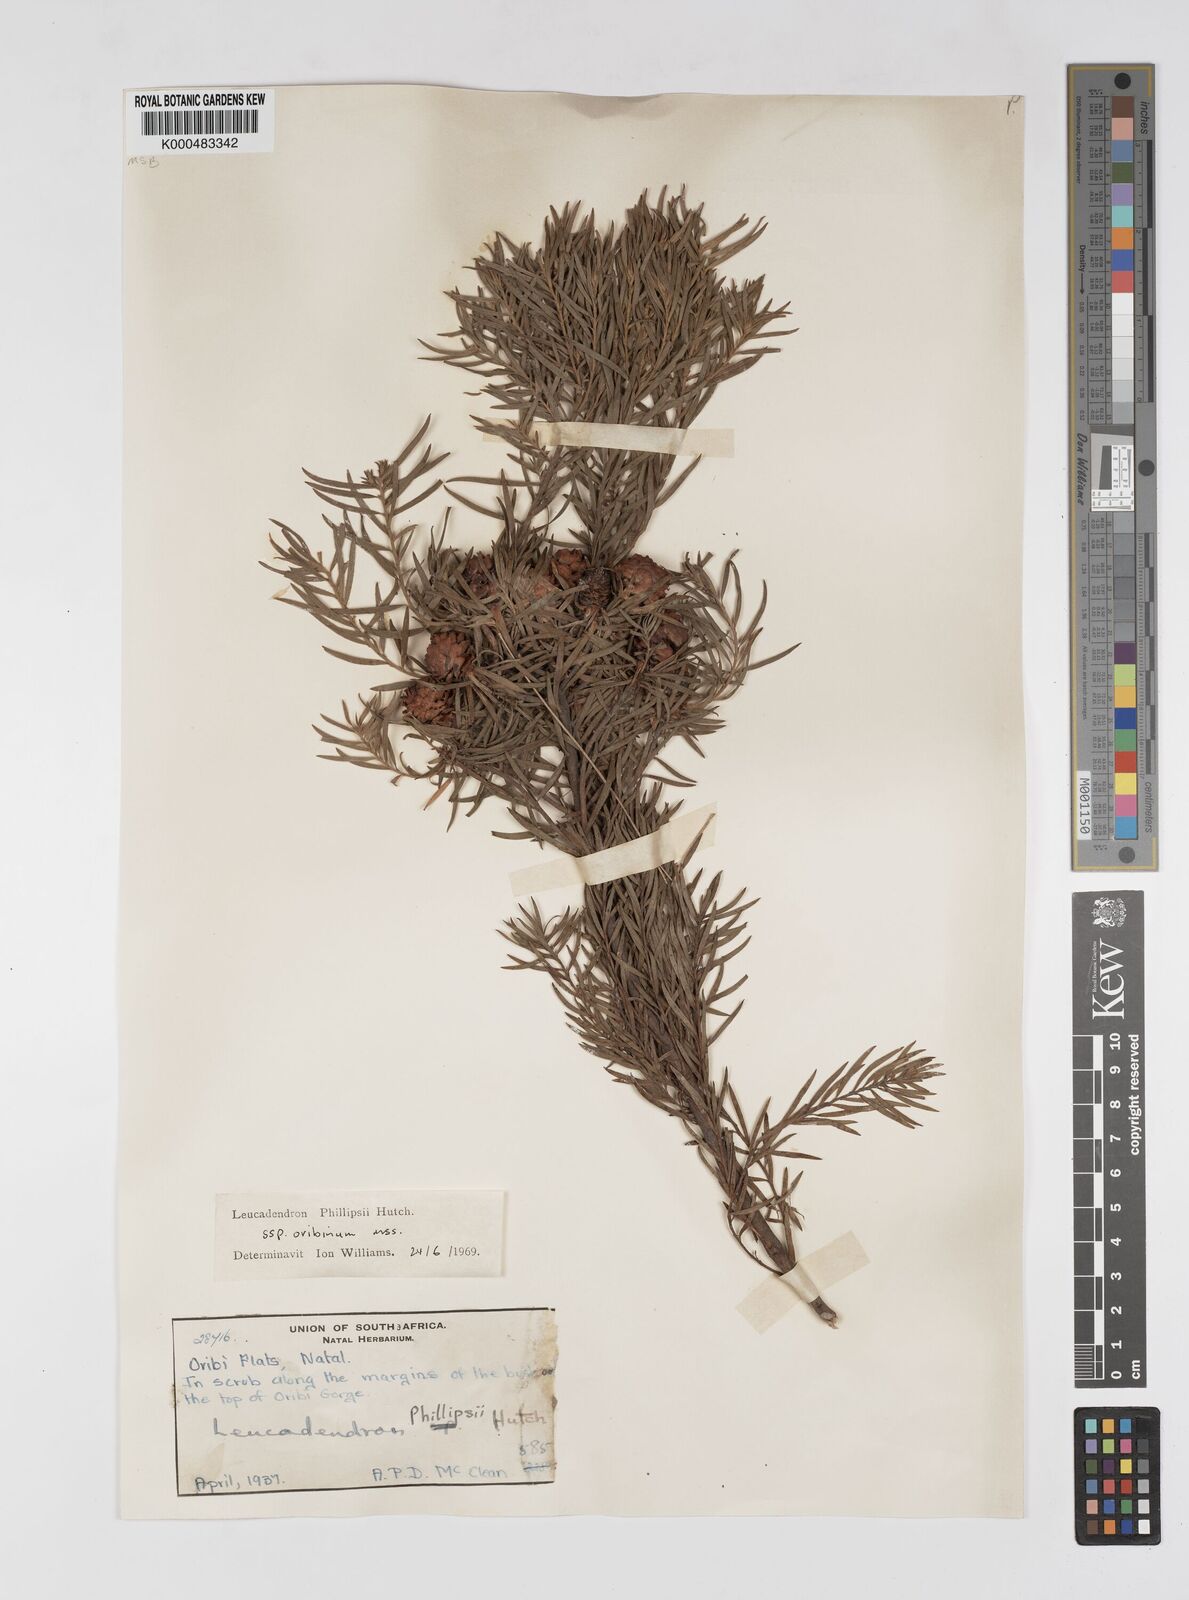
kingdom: Plantae
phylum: Tracheophyta
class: Magnoliopsida
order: Proteales
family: Proteaceae
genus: Leucadendron
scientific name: Leucadendron spissifolium
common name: Spear-leaf conebush
